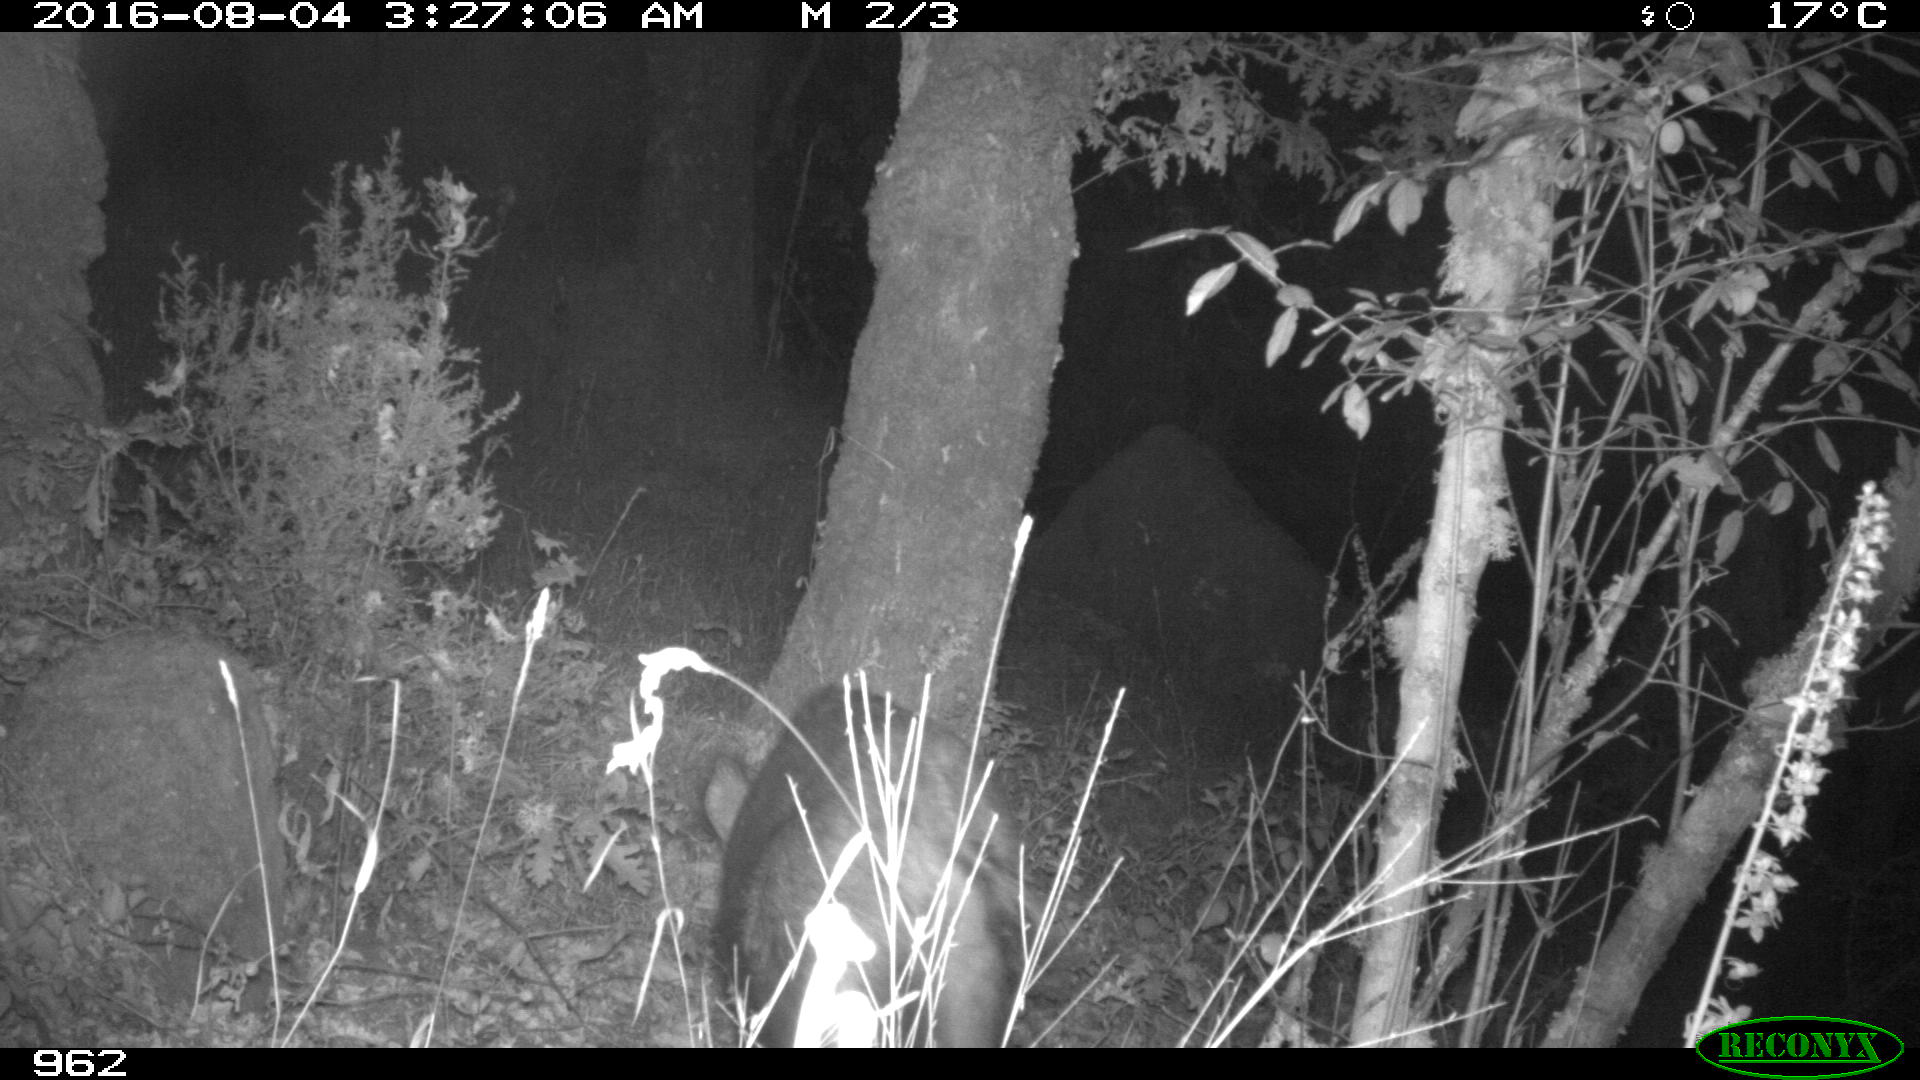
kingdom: Animalia
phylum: Chordata
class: Mammalia
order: Artiodactyla
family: Suidae
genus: Sus
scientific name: Sus scrofa
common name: Wild boar
